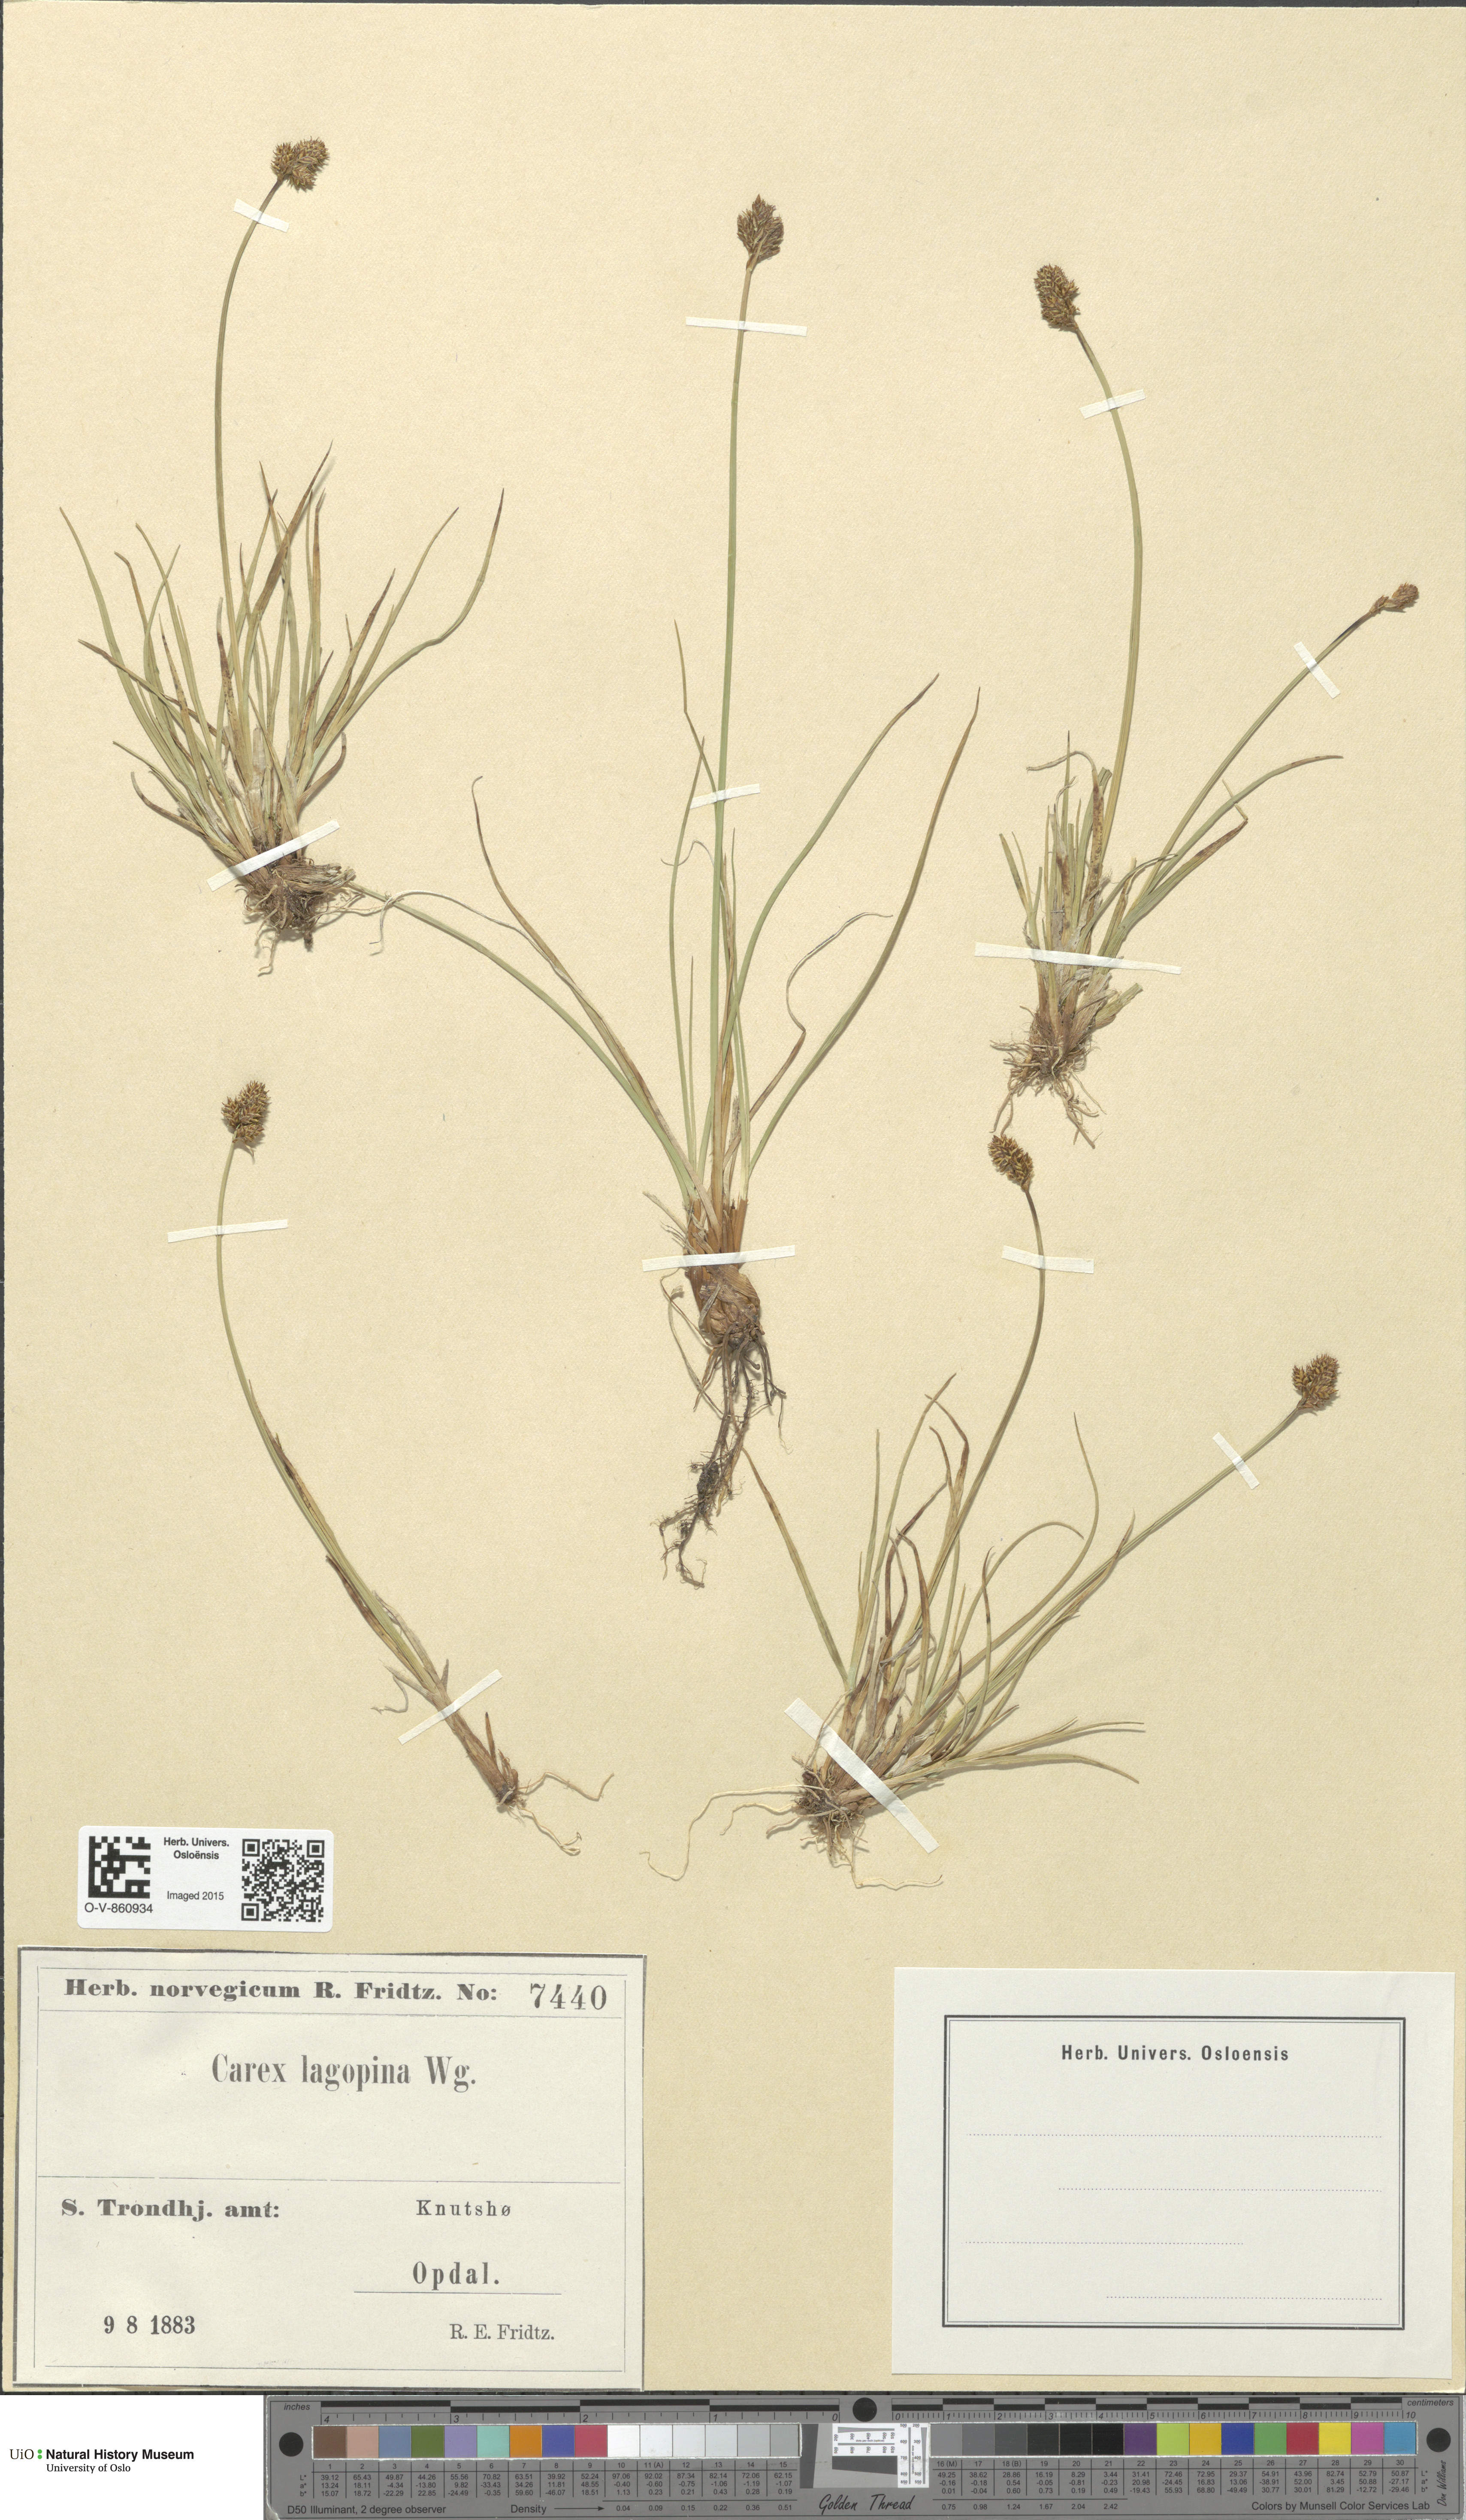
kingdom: Plantae
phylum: Tracheophyta
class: Liliopsida
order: Poales
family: Cyperaceae
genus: Carex
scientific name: Carex lachenalii
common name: Hare's-foot sedge
